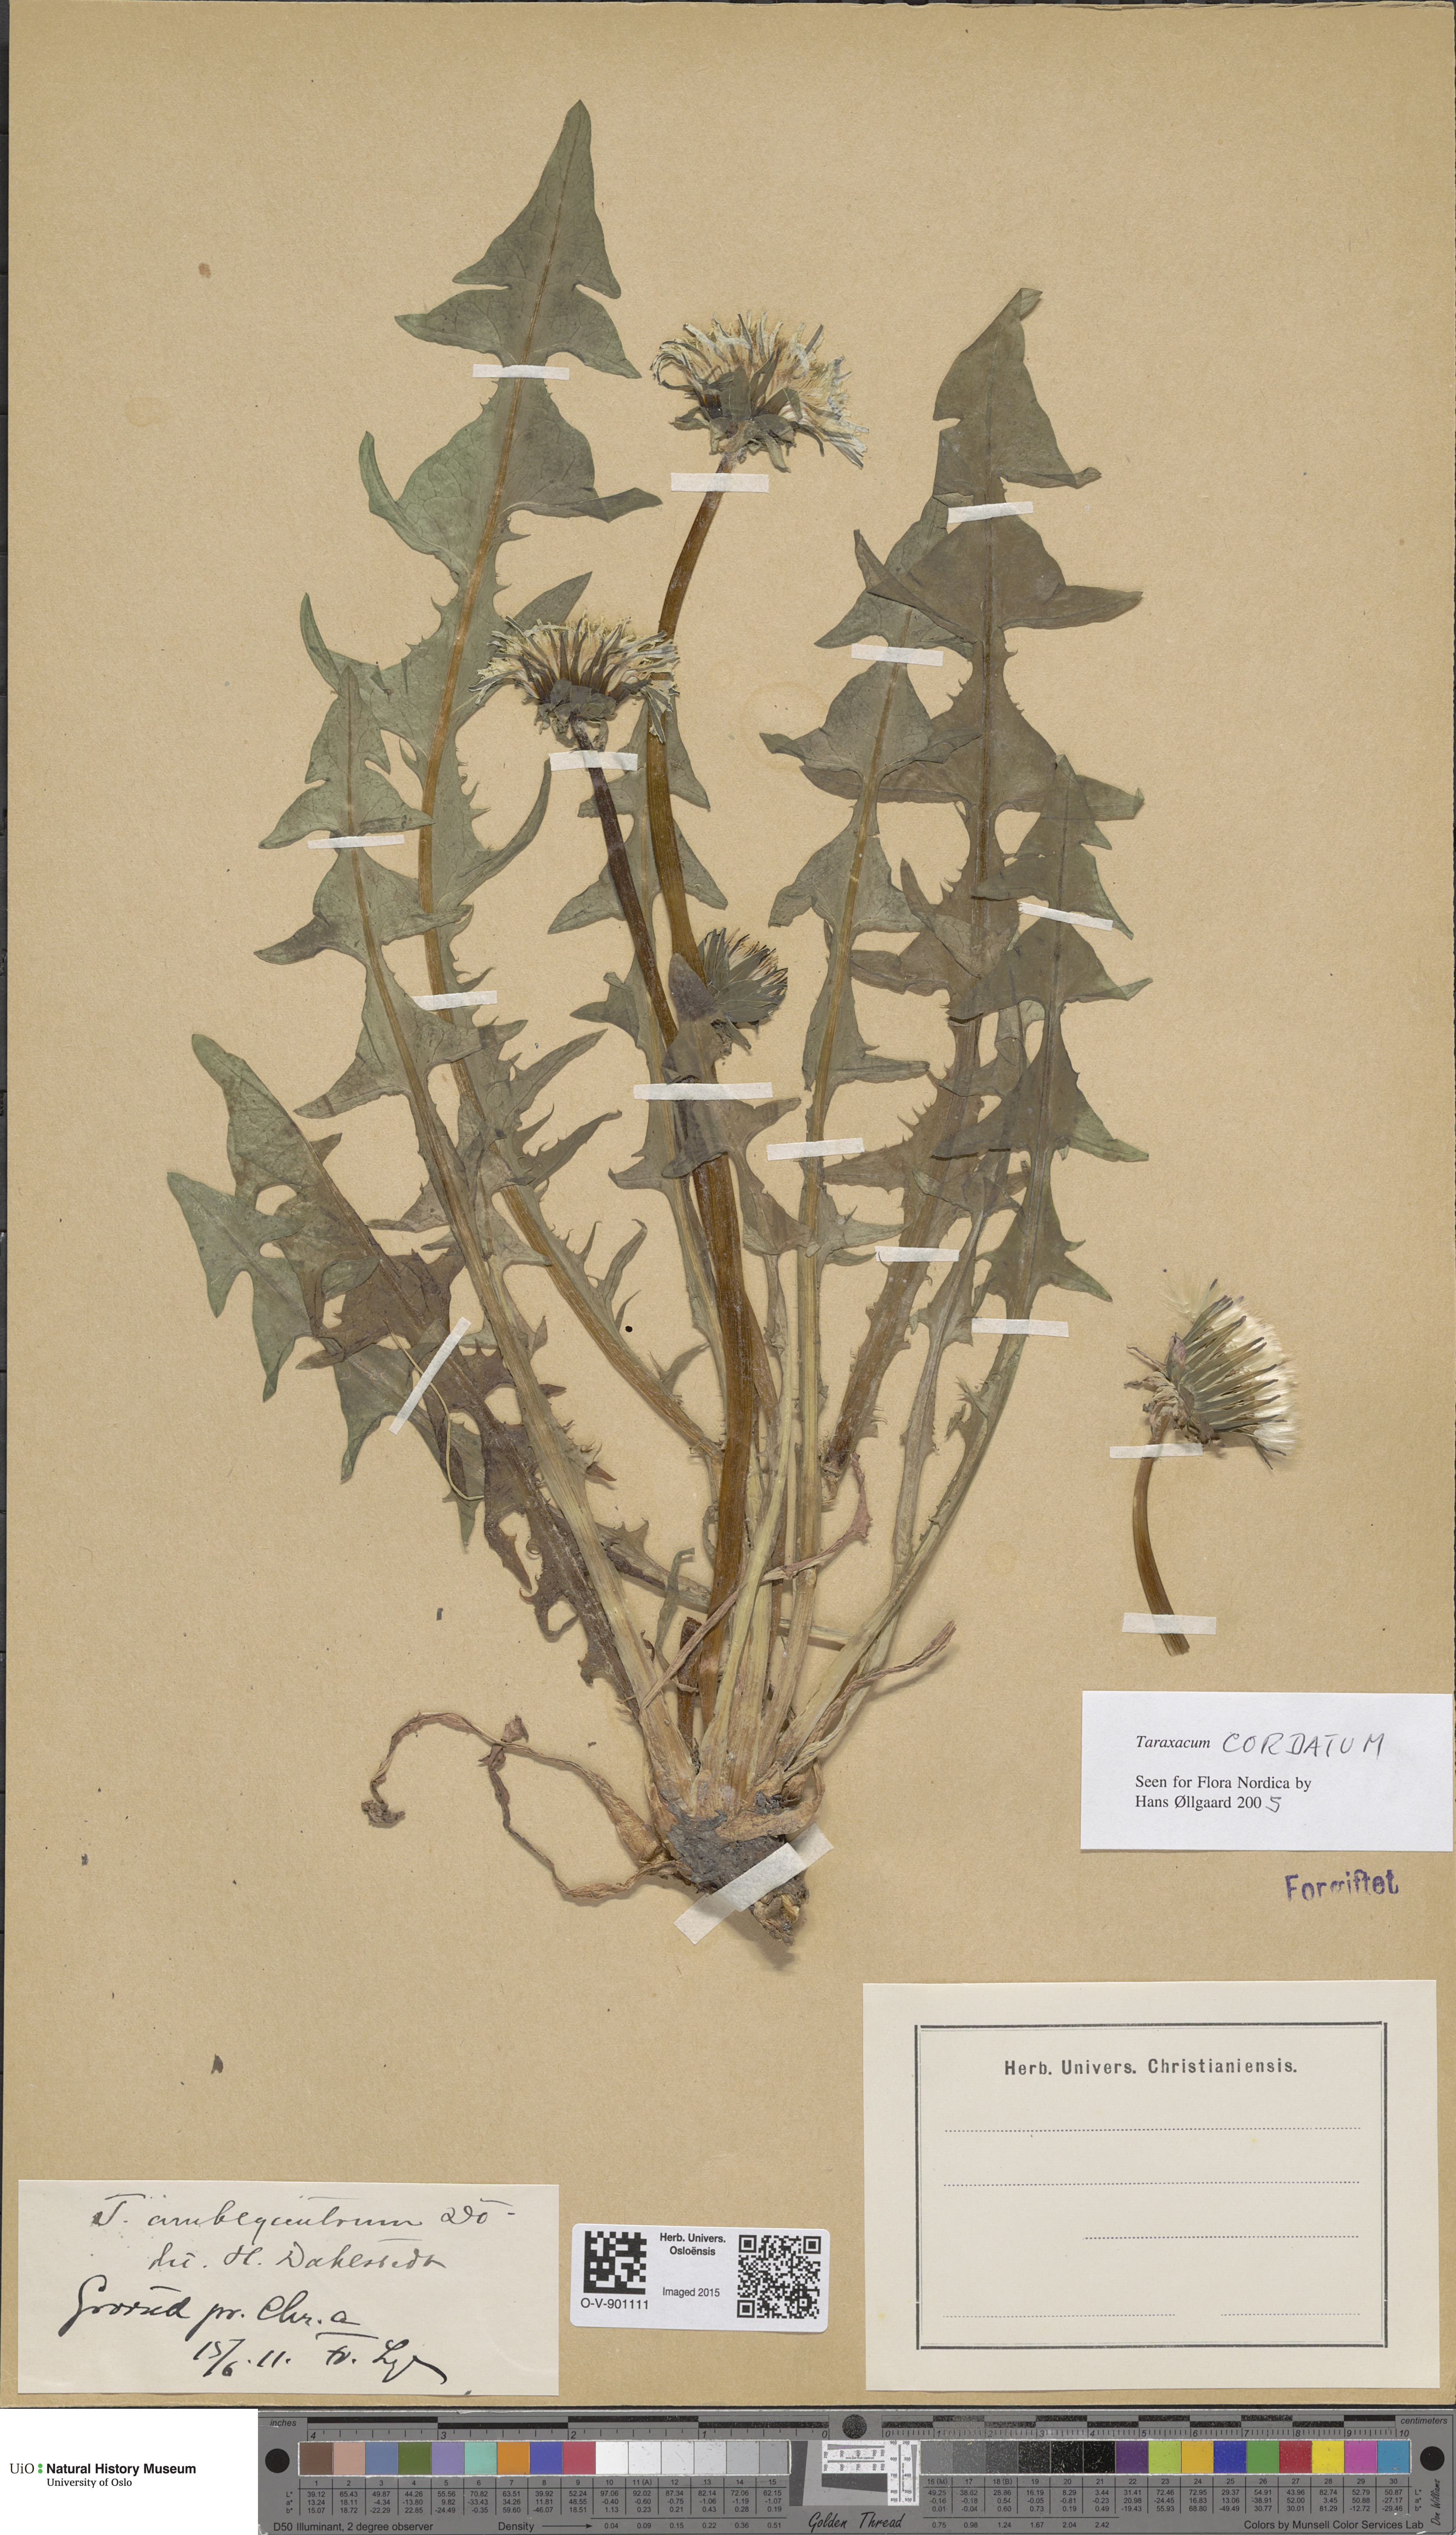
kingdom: Plantae
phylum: Tracheophyta
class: Magnoliopsida
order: Asterales
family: Asteraceae
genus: Taraxacum
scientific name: Taraxacum cordatum
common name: Entire-lobed dandelion
